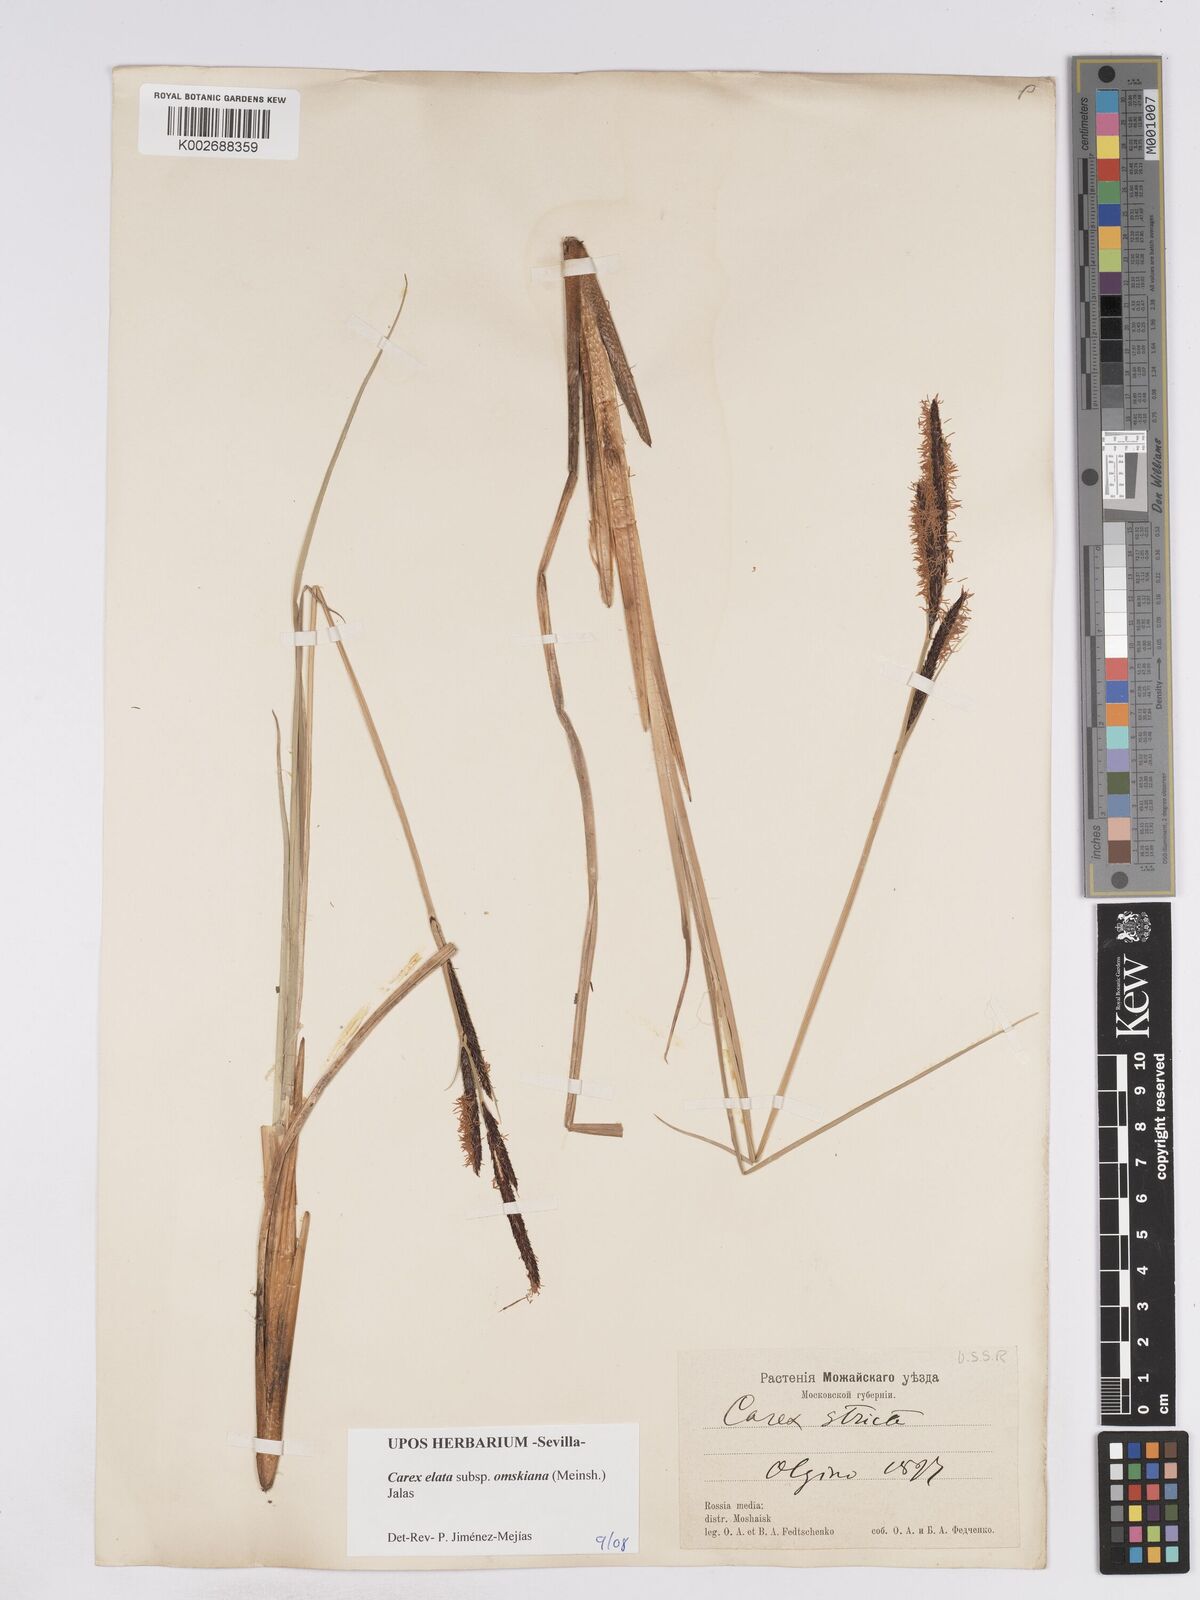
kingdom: Plantae
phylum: Tracheophyta
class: Liliopsida
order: Poales
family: Cyperaceae
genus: Carex
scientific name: Carex elata
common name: Tufted sedge
